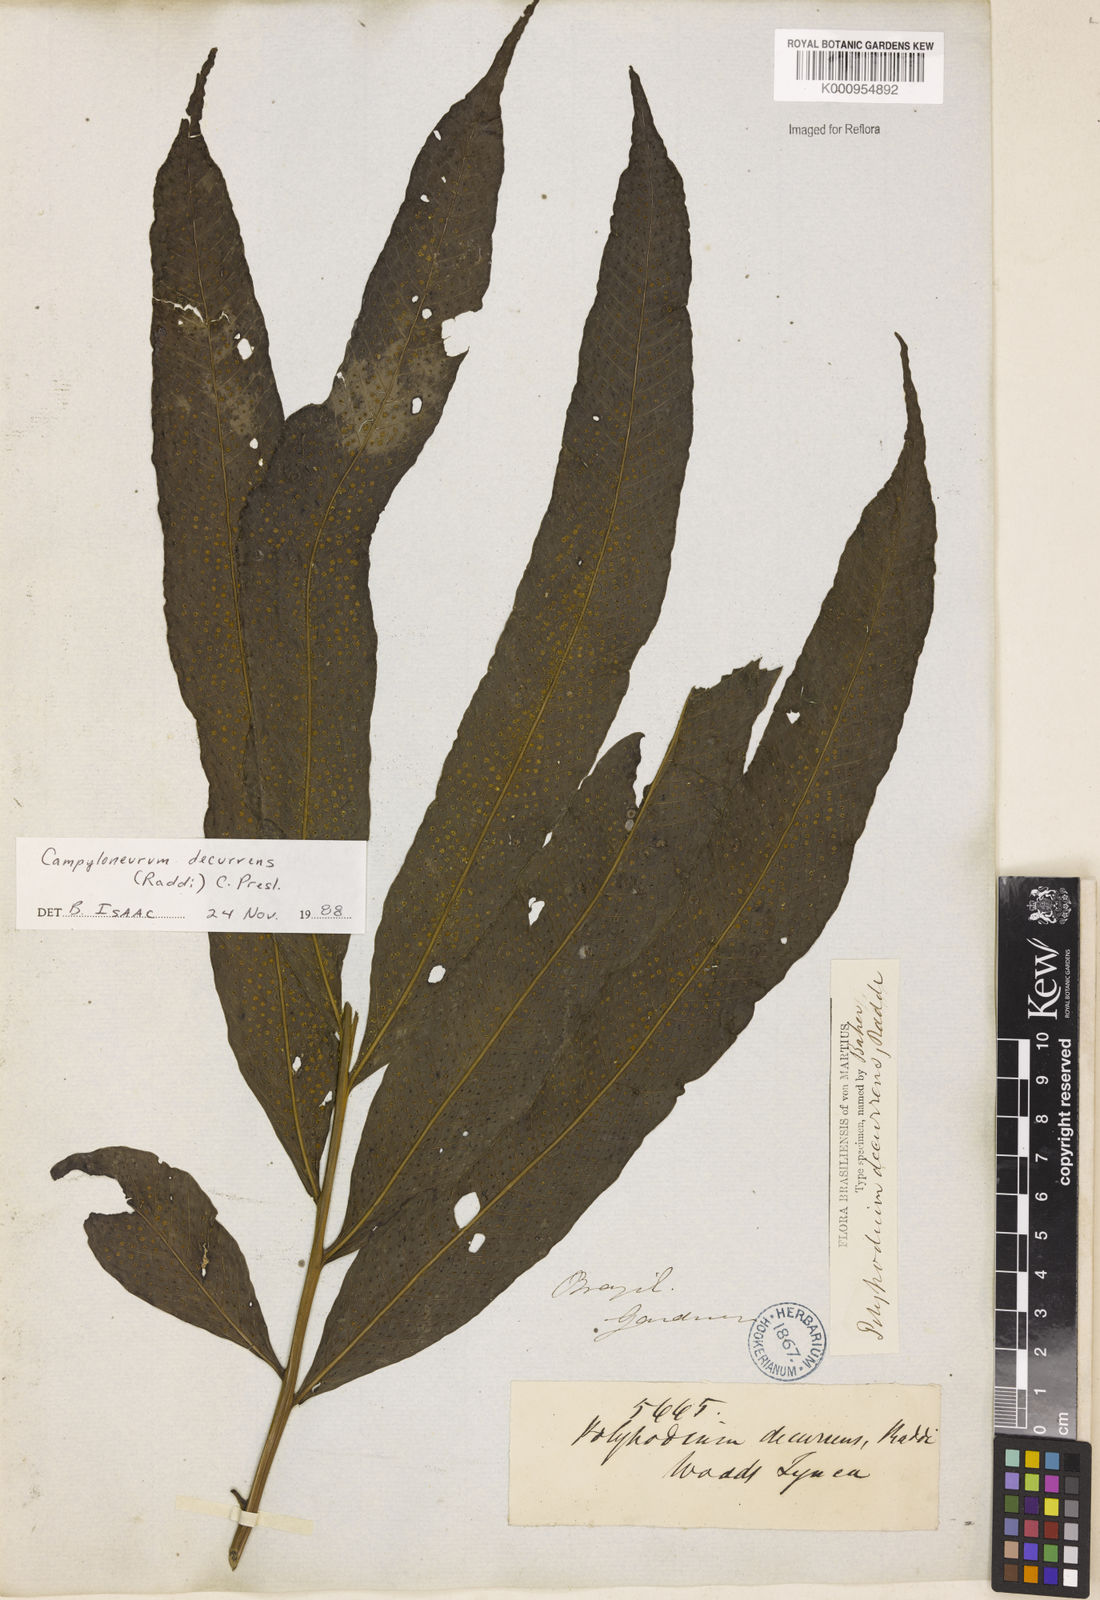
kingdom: Plantae
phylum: Tracheophyta
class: Polypodiopsida
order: Polypodiales
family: Polypodiaceae
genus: Campyloneurum
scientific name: Campyloneurum decurrens
